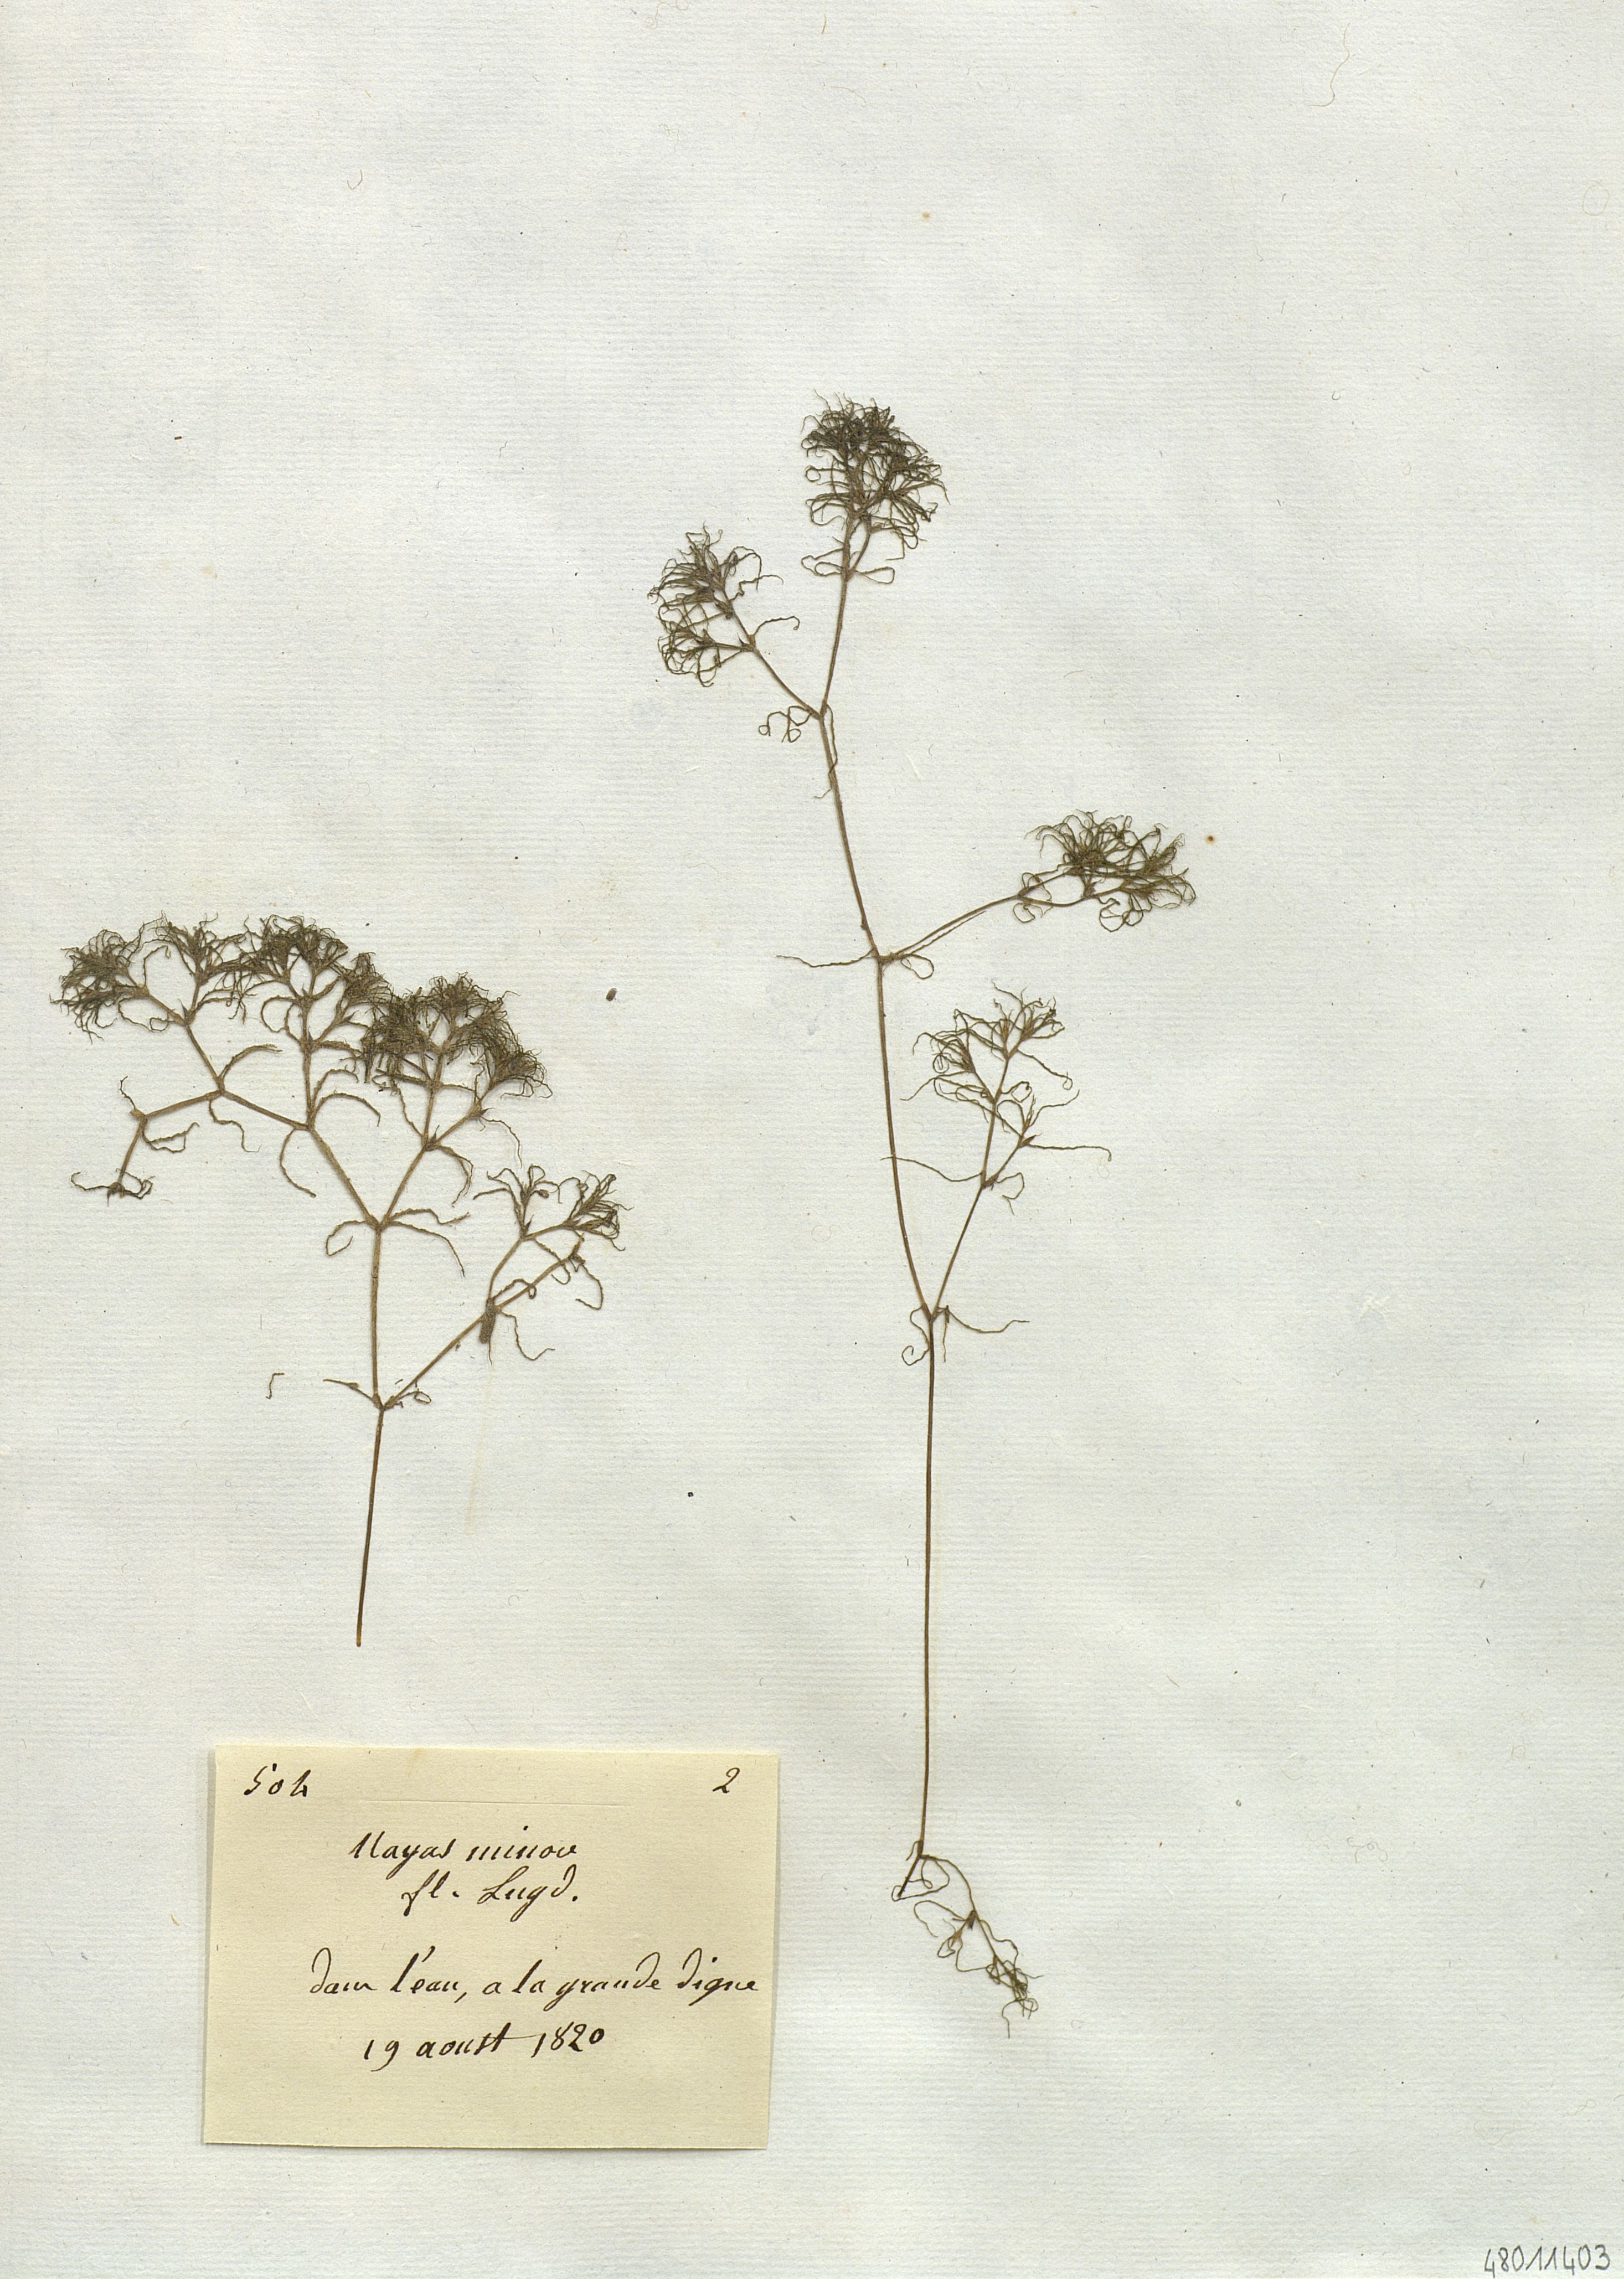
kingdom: Plantae
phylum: Tracheophyta
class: Liliopsida
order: Alismatales
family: Hydrocharitaceae
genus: Najas
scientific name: Najas minor
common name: Brittle naiad
